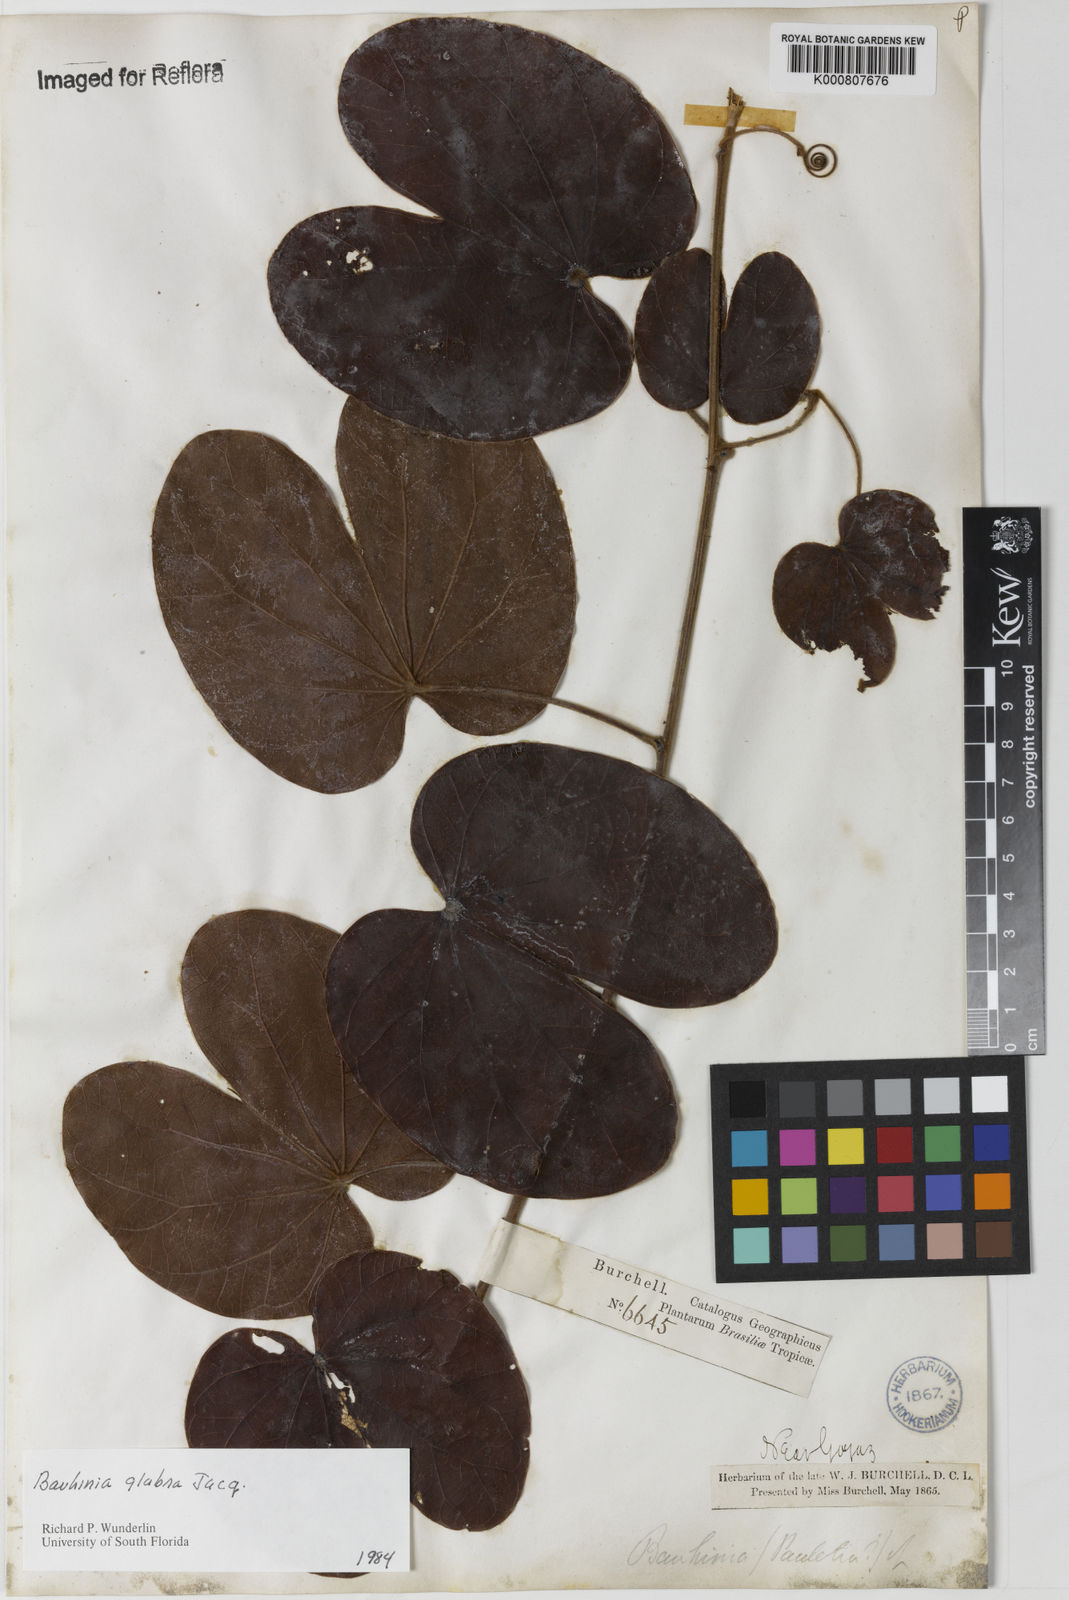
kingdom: Plantae
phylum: Tracheophyta
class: Magnoliopsida
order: Fabales
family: Fabaceae
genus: Schnella
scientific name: Schnella glabra
